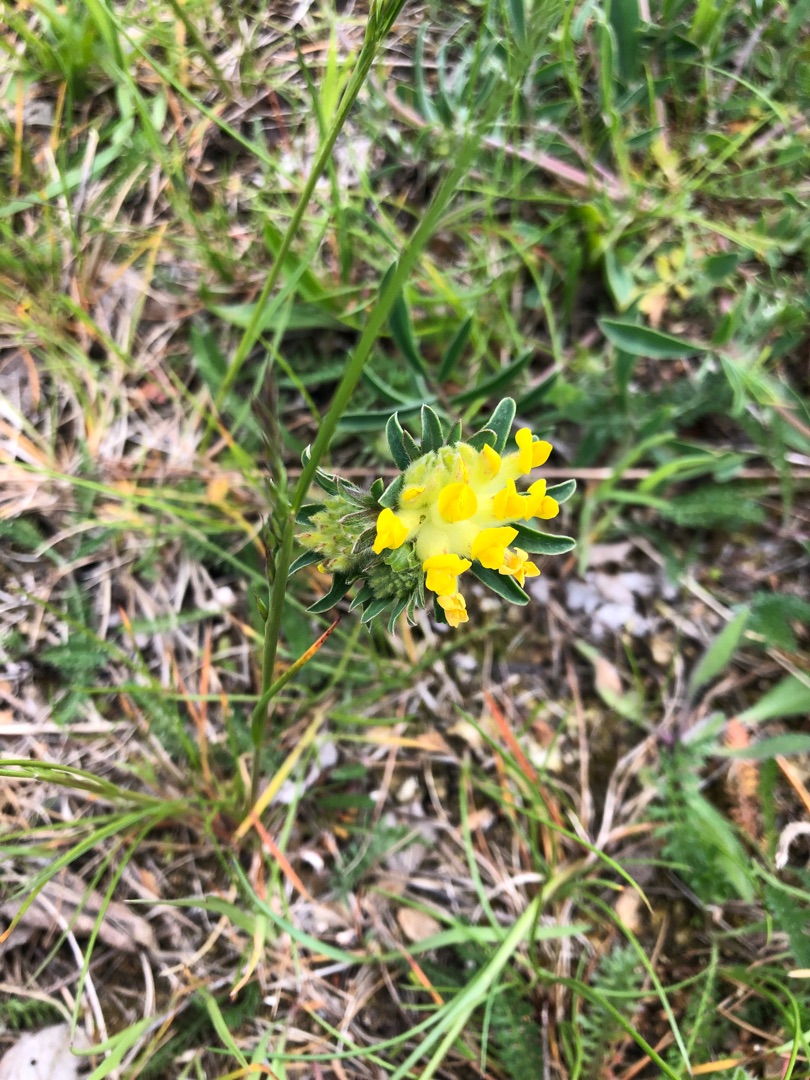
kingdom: Plantae
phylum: Tracheophyta
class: Magnoliopsida
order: Fabales
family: Fabaceae
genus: Anthyllis
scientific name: Anthyllis vulneraria
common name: Rundbælg
